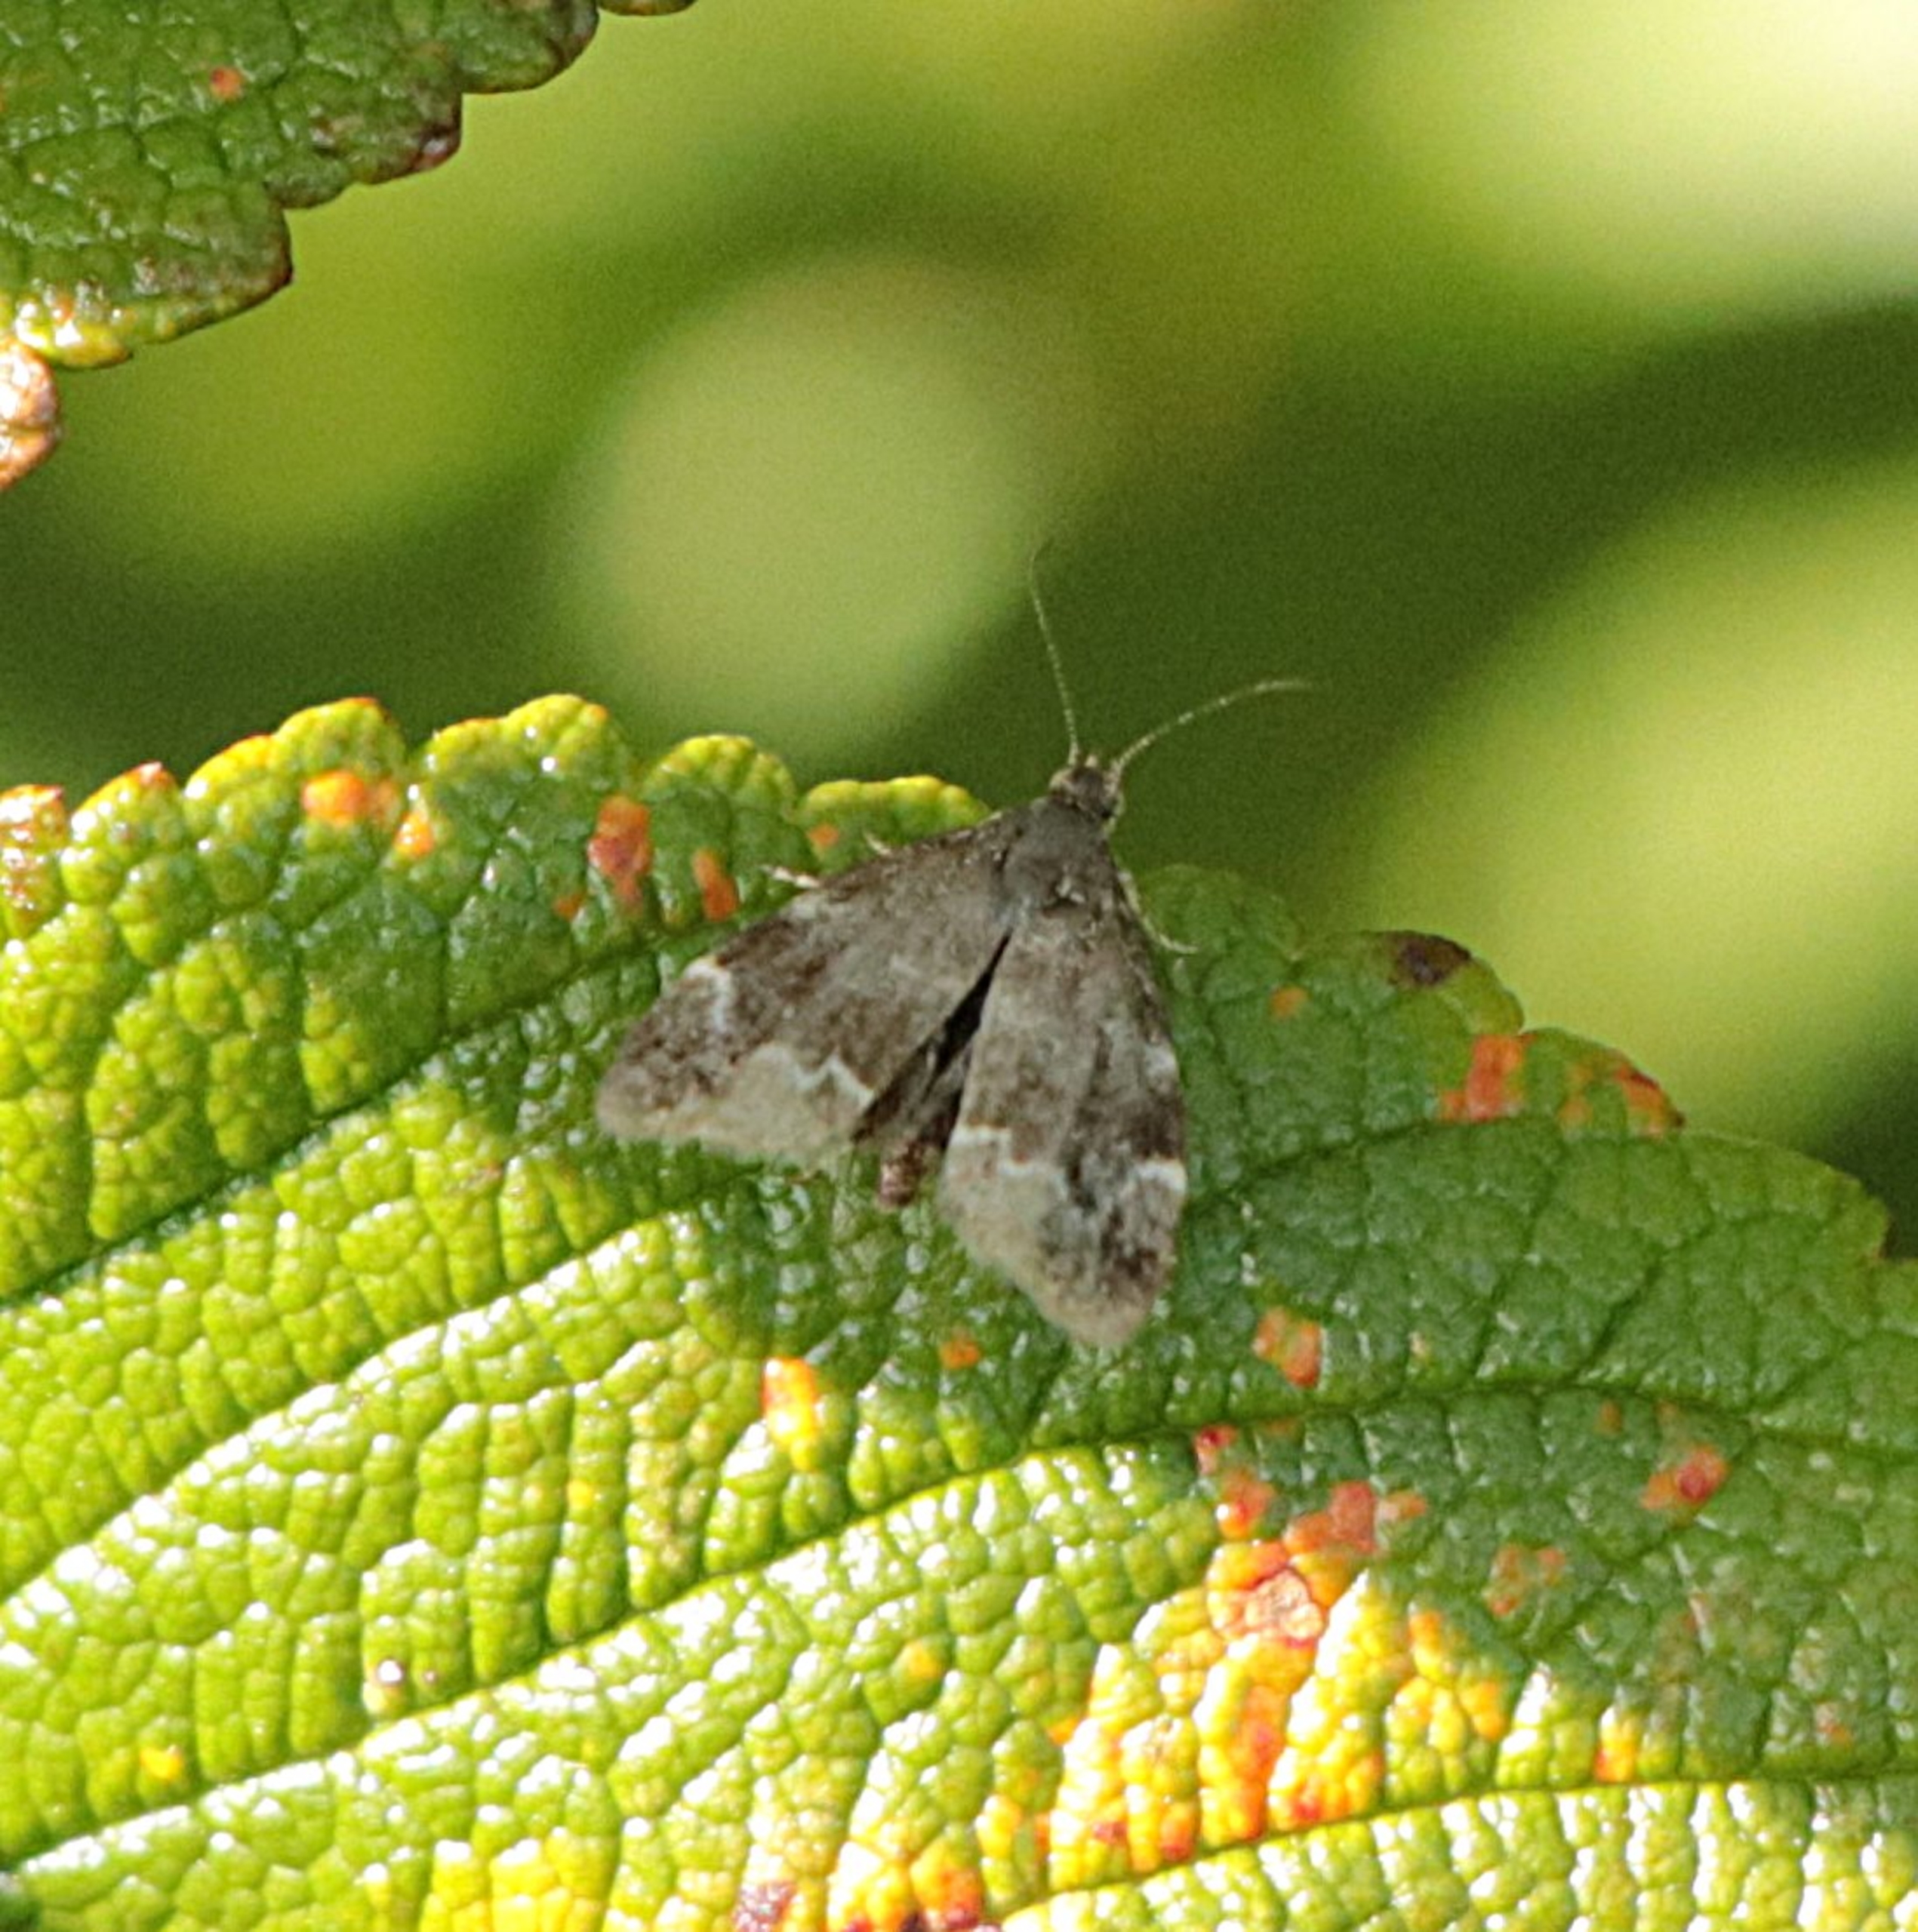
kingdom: Animalia
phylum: Arthropoda
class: Insecta
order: Lepidoptera
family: Choreutidae
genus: Anthophila
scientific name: Anthophila fabriciana
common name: Bredvinget nældevikler
